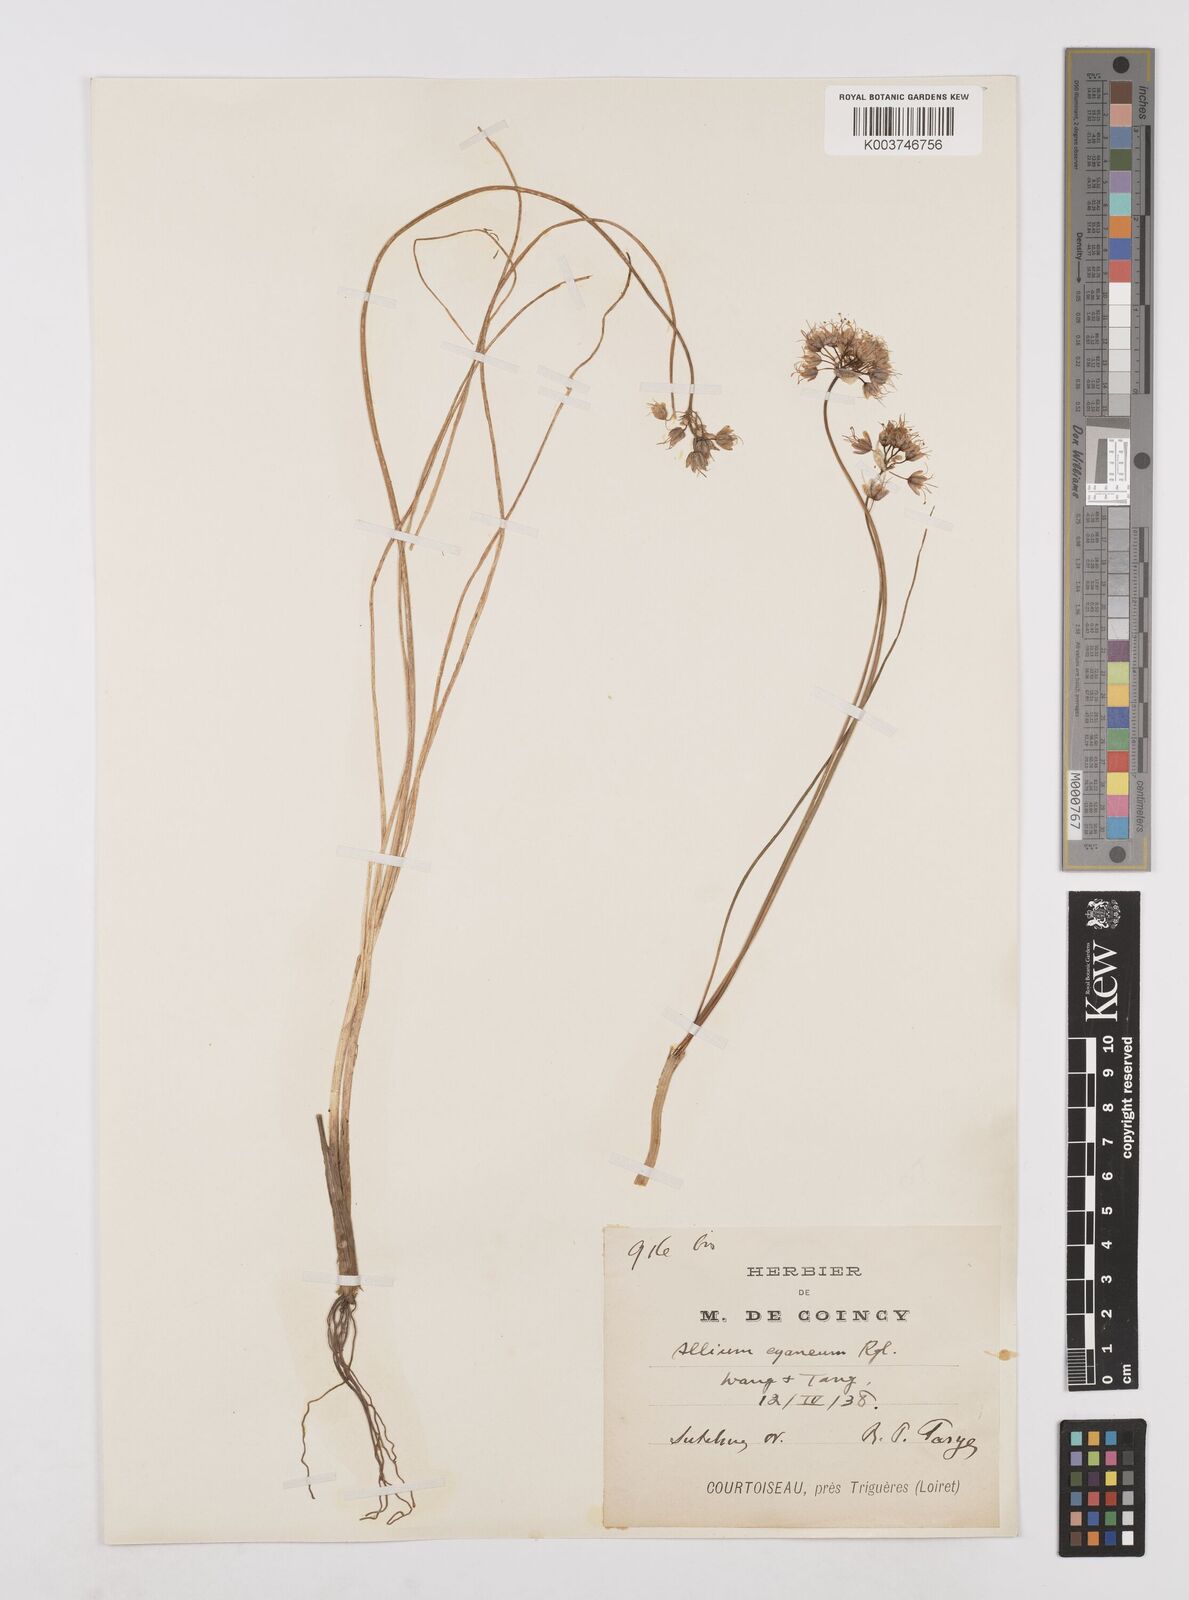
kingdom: Plantae
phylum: Tracheophyta
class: Liliopsida
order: Asparagales
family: Amaryllidaceae
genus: Allium
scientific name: Allium cyaneum
